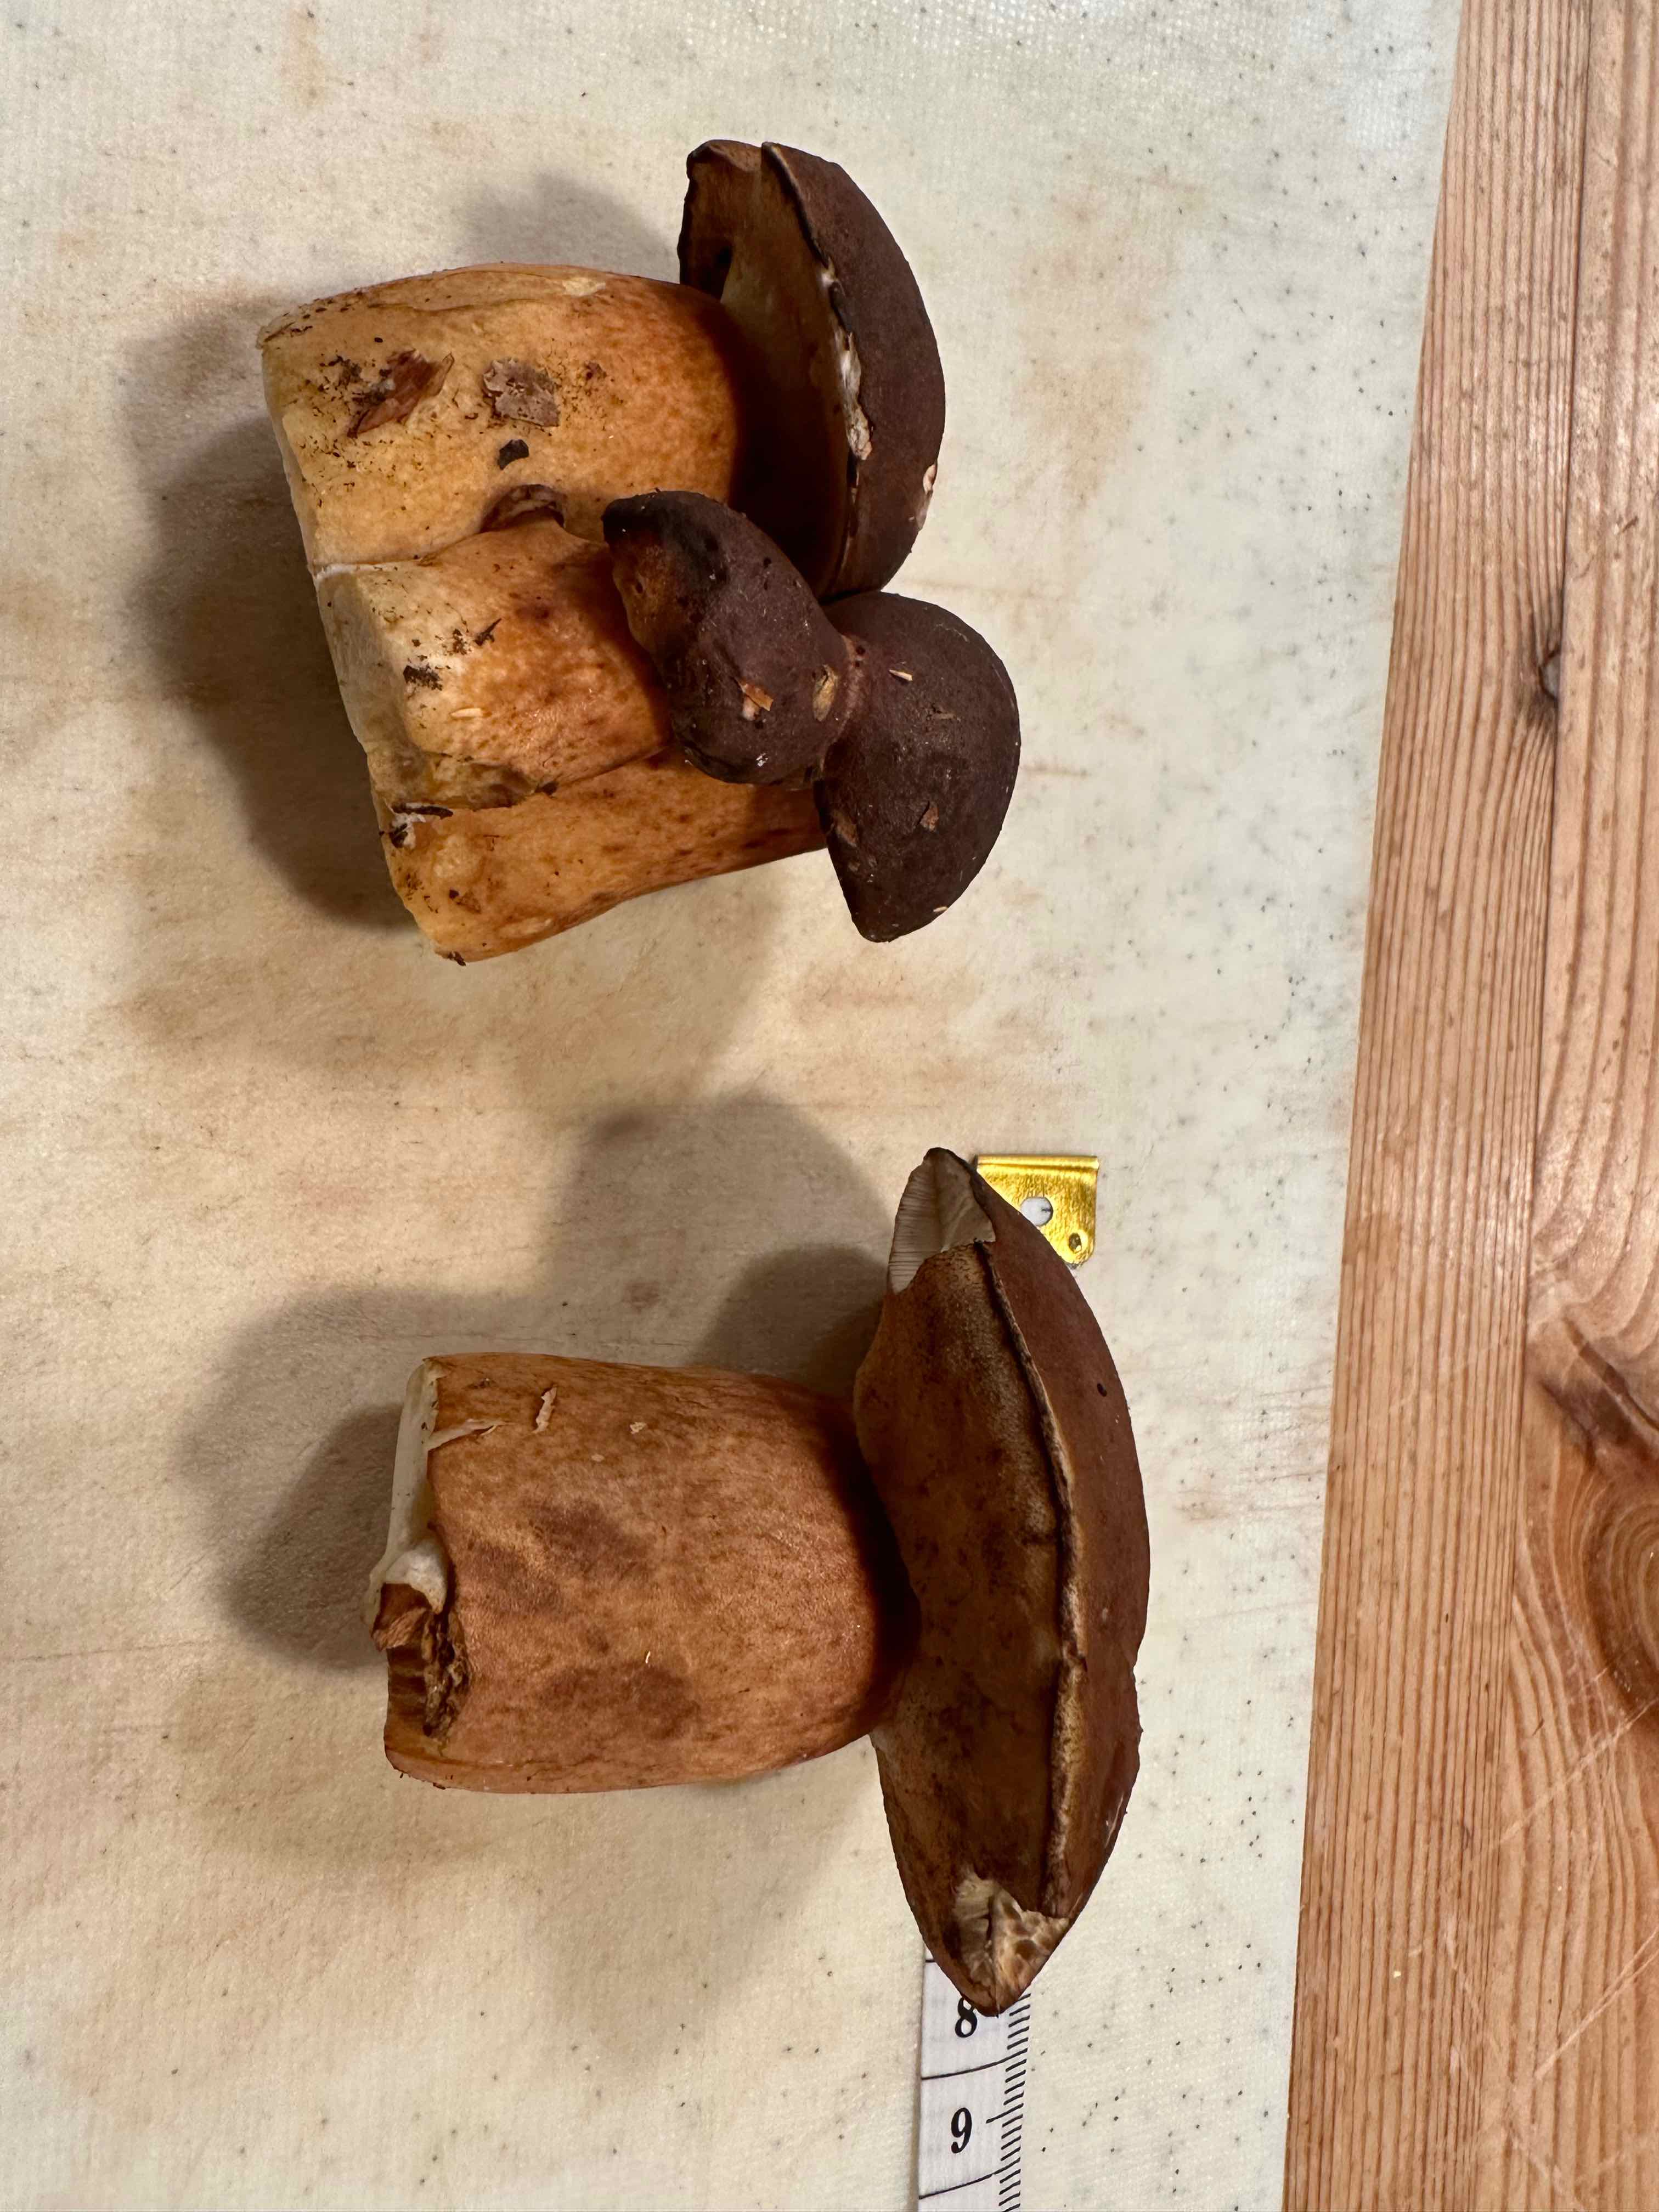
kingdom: Fungi
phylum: Basidiomycota
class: Agaricomycetes
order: Boletales
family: Boletaceae
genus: Imleria
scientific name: Imleria badia
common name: brunstokket rørhat
